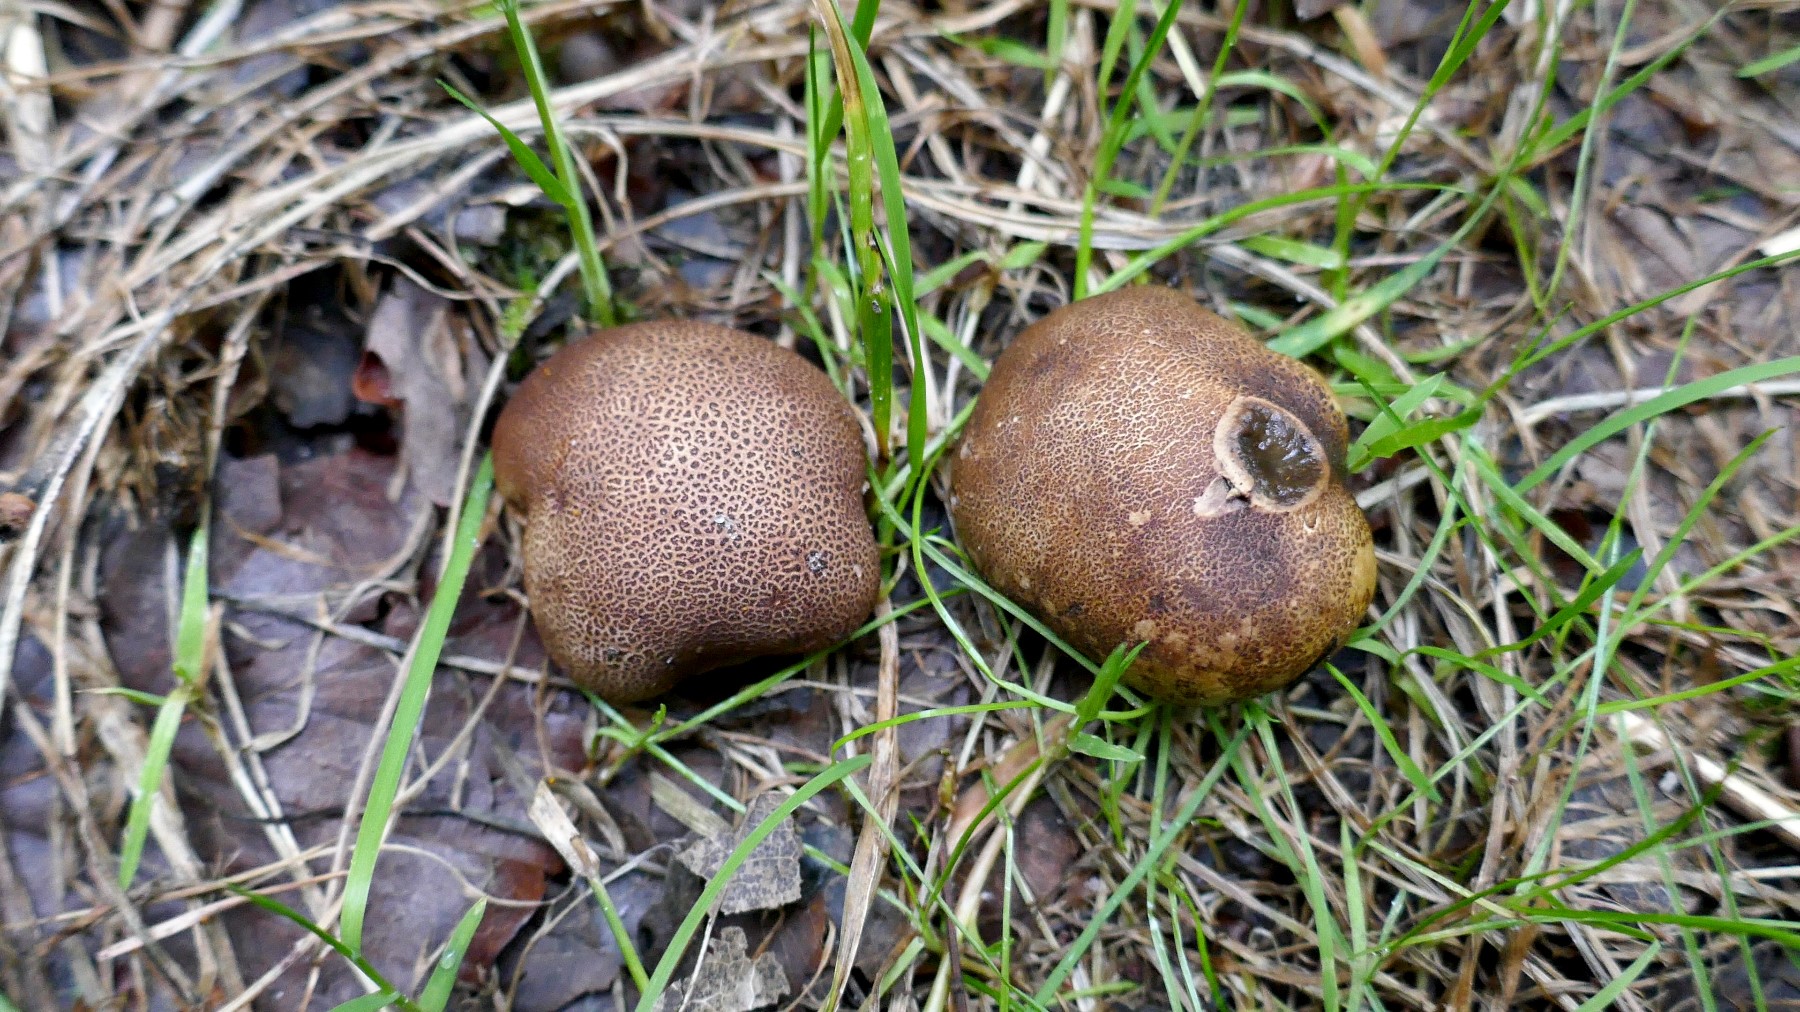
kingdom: Fungi
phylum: Basidiomycota
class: Agaricomycetes
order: Boletales
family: Sclerodermataceae
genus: Scleroderma
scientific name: Scleroderma areolatum
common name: plettet bruskbold
